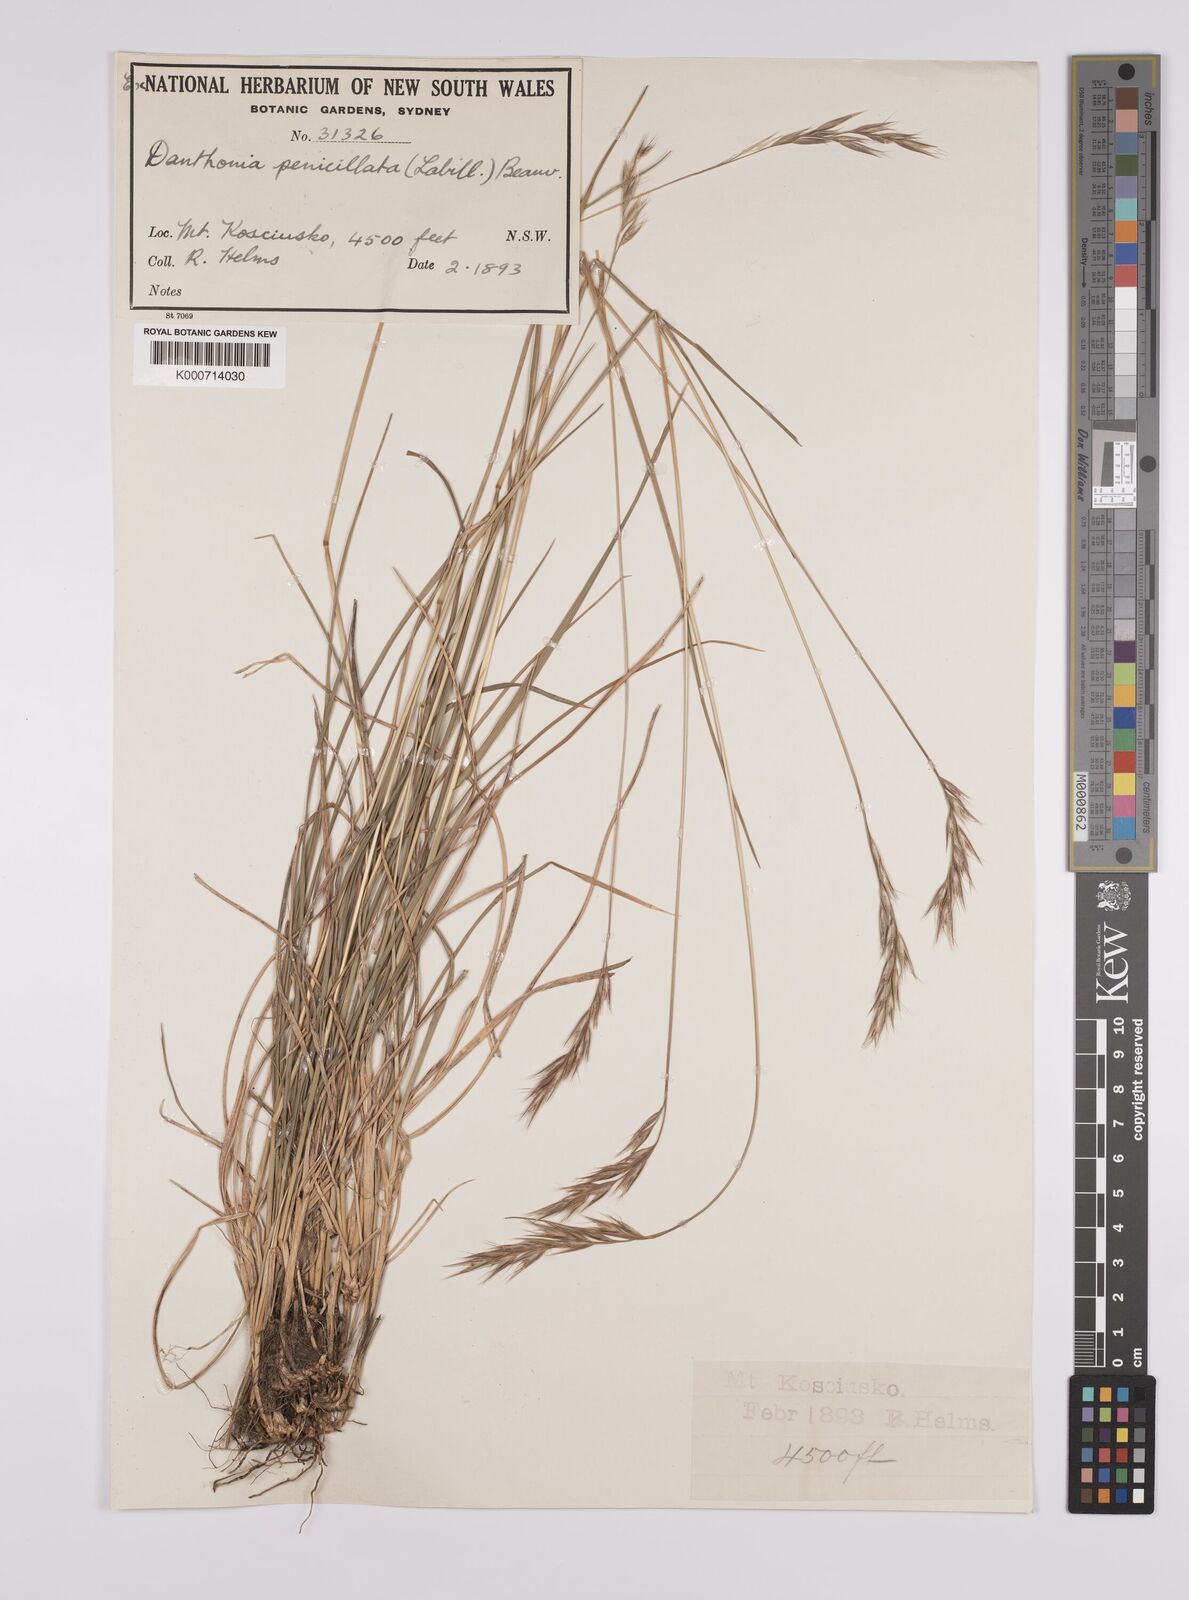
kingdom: Plantae
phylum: Tracheophyta
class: Liliopsida
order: Poales
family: Poaceae
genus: Rytidosperma
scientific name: Rytidosperma penicillatum
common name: Hairy wallaby grass
